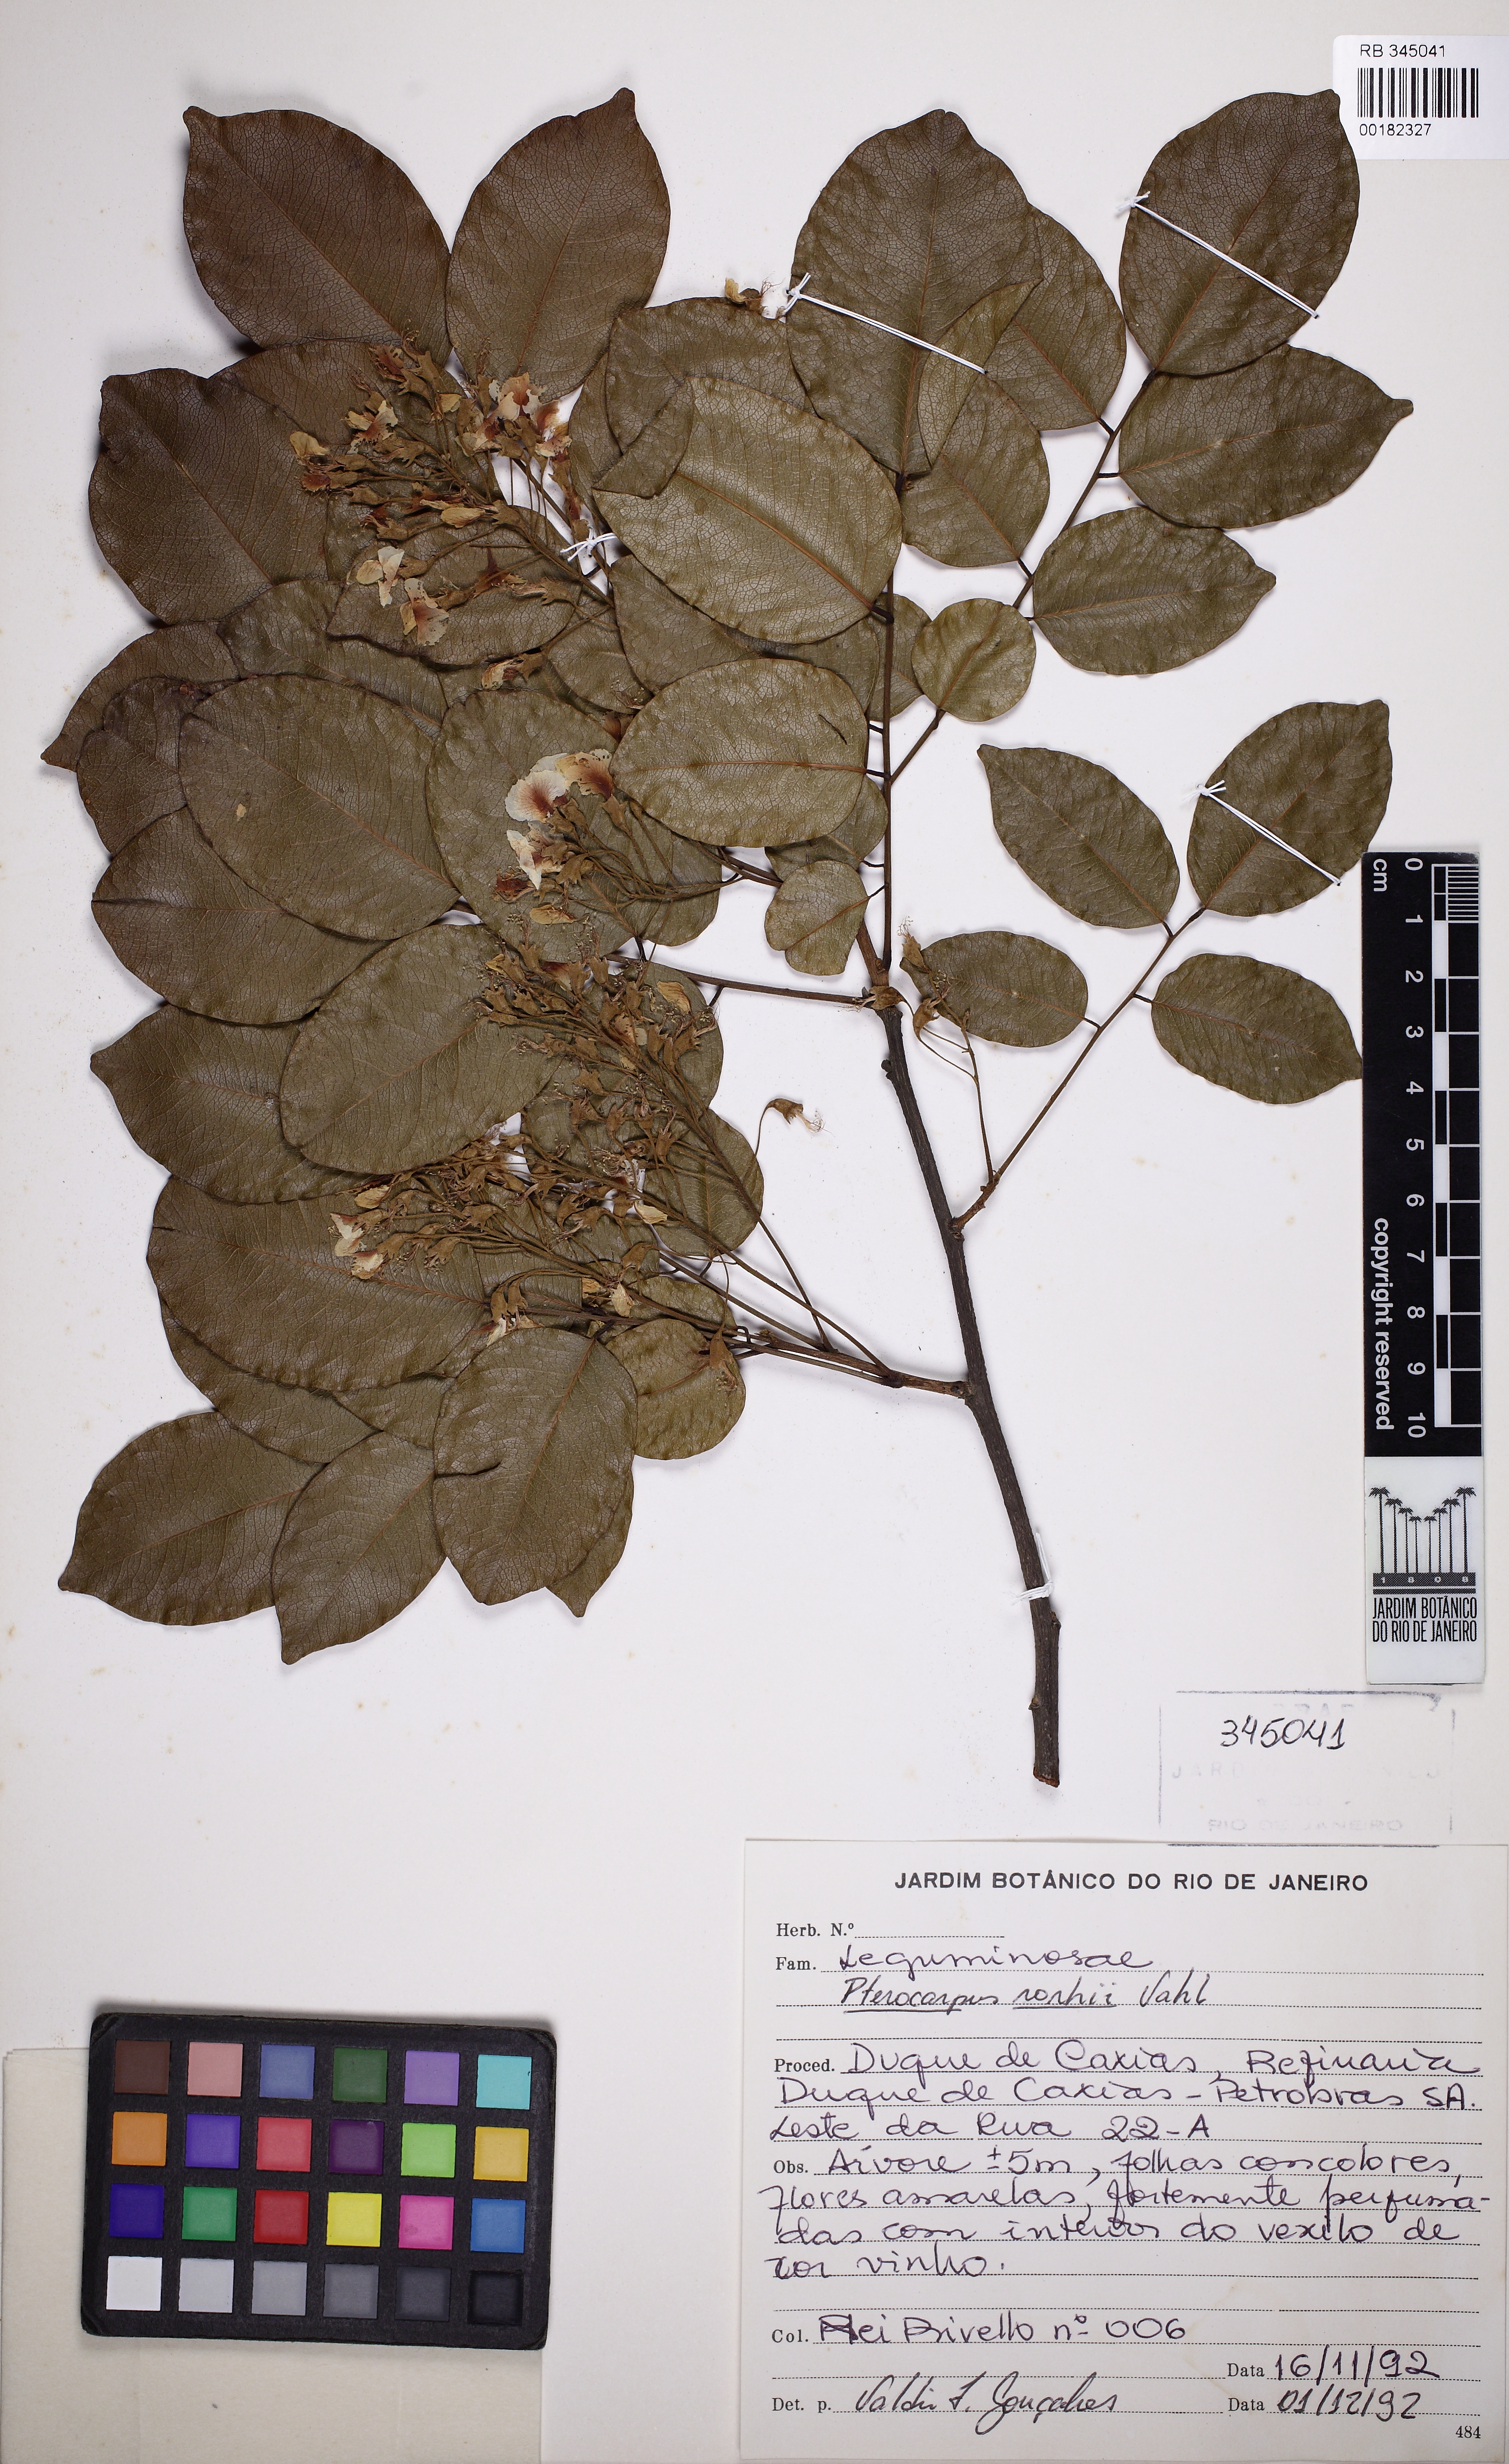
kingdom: Plantae
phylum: Tracheophyta
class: Magnoliopsida
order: Fabales
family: Fabaceae
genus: Pterocarpus
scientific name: Pterocarpus rohrii
